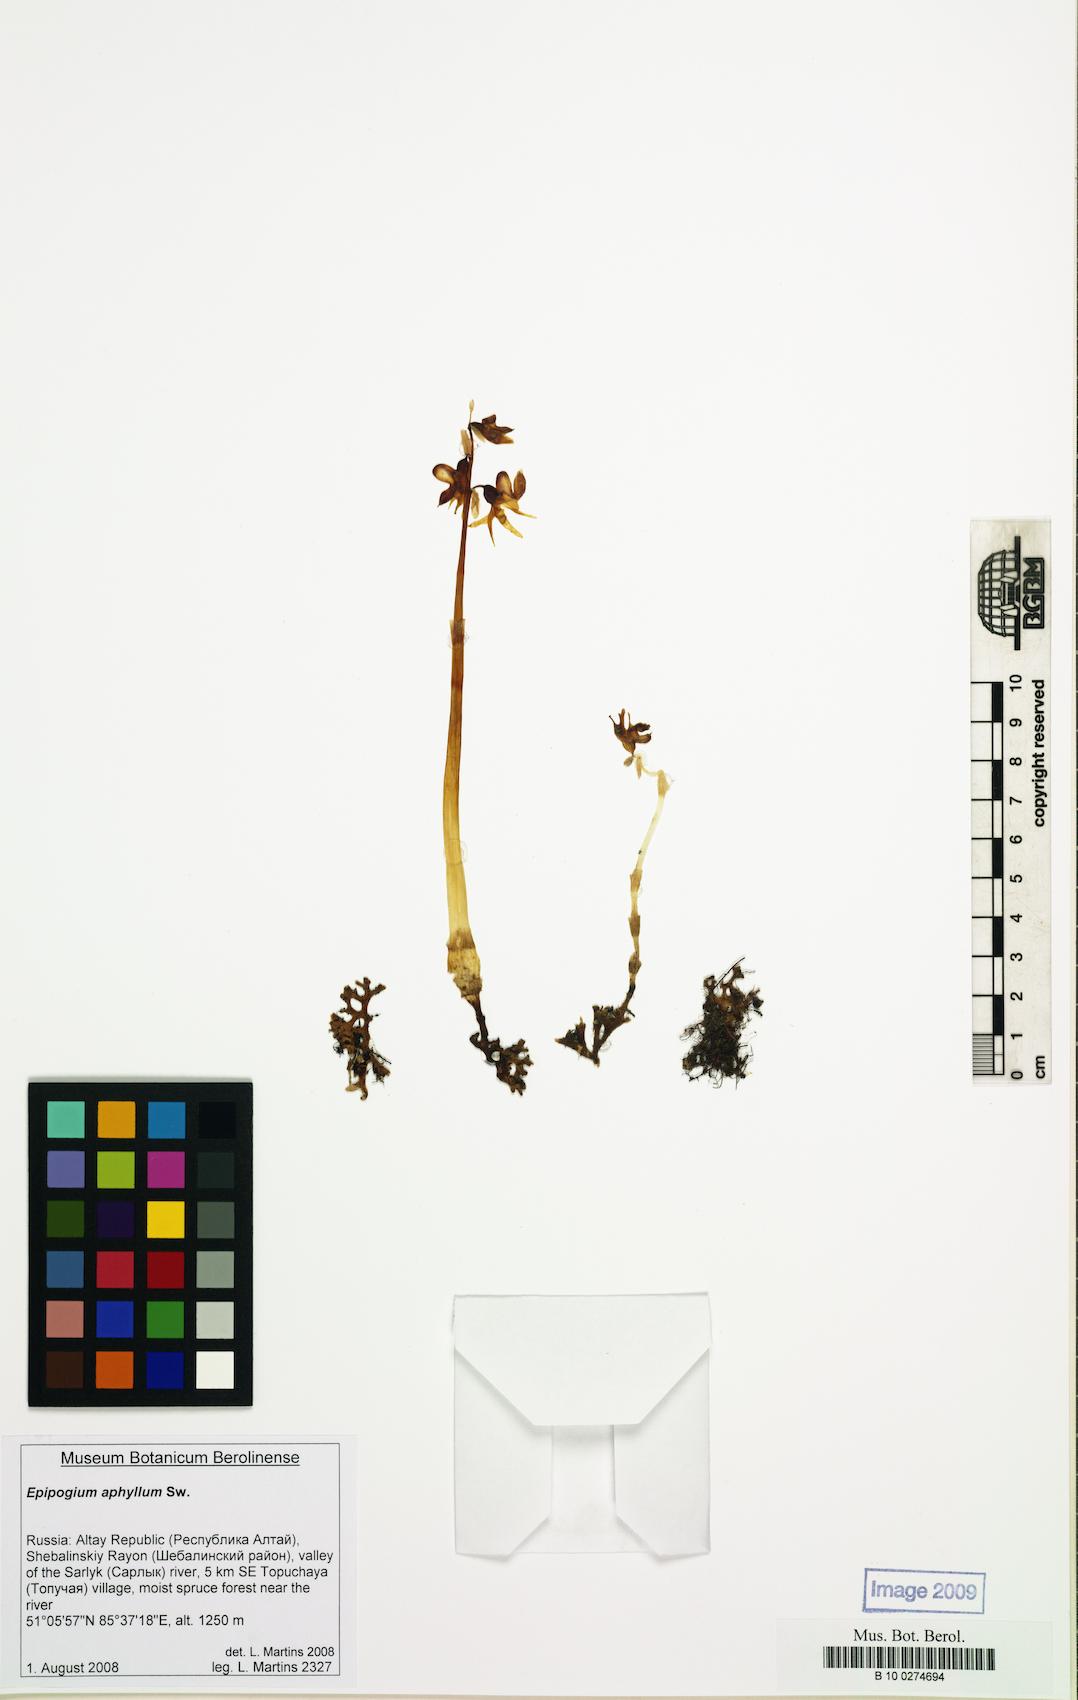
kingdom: Plantae
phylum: Tracheophyta
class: Liliopsida
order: Asparagales
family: Orchidaceae
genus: Epipogium
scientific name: Epipogium aphyllum
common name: Ghost orchid
